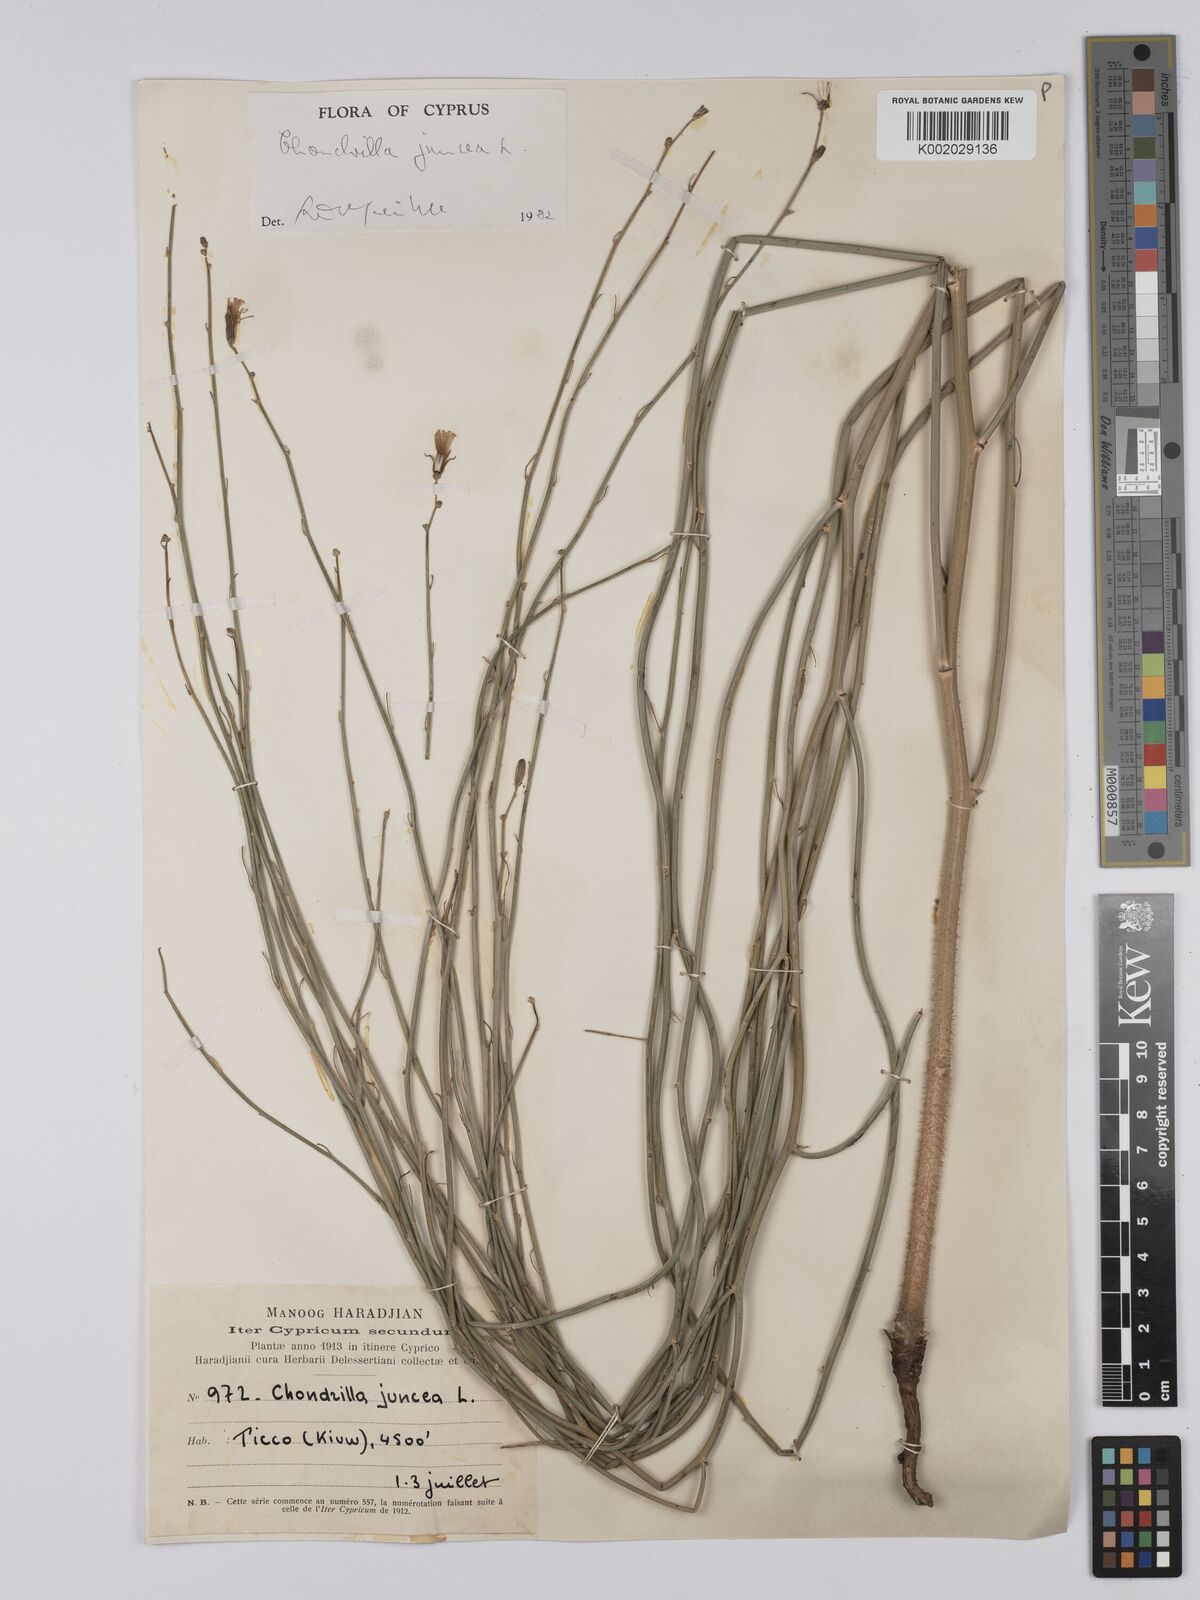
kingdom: Plantae
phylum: Tracheophyta
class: Magnoliopsida
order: Asterales
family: Asteraceae
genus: Chondrilla
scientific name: Chondrilla juncea
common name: Skeleton weed
